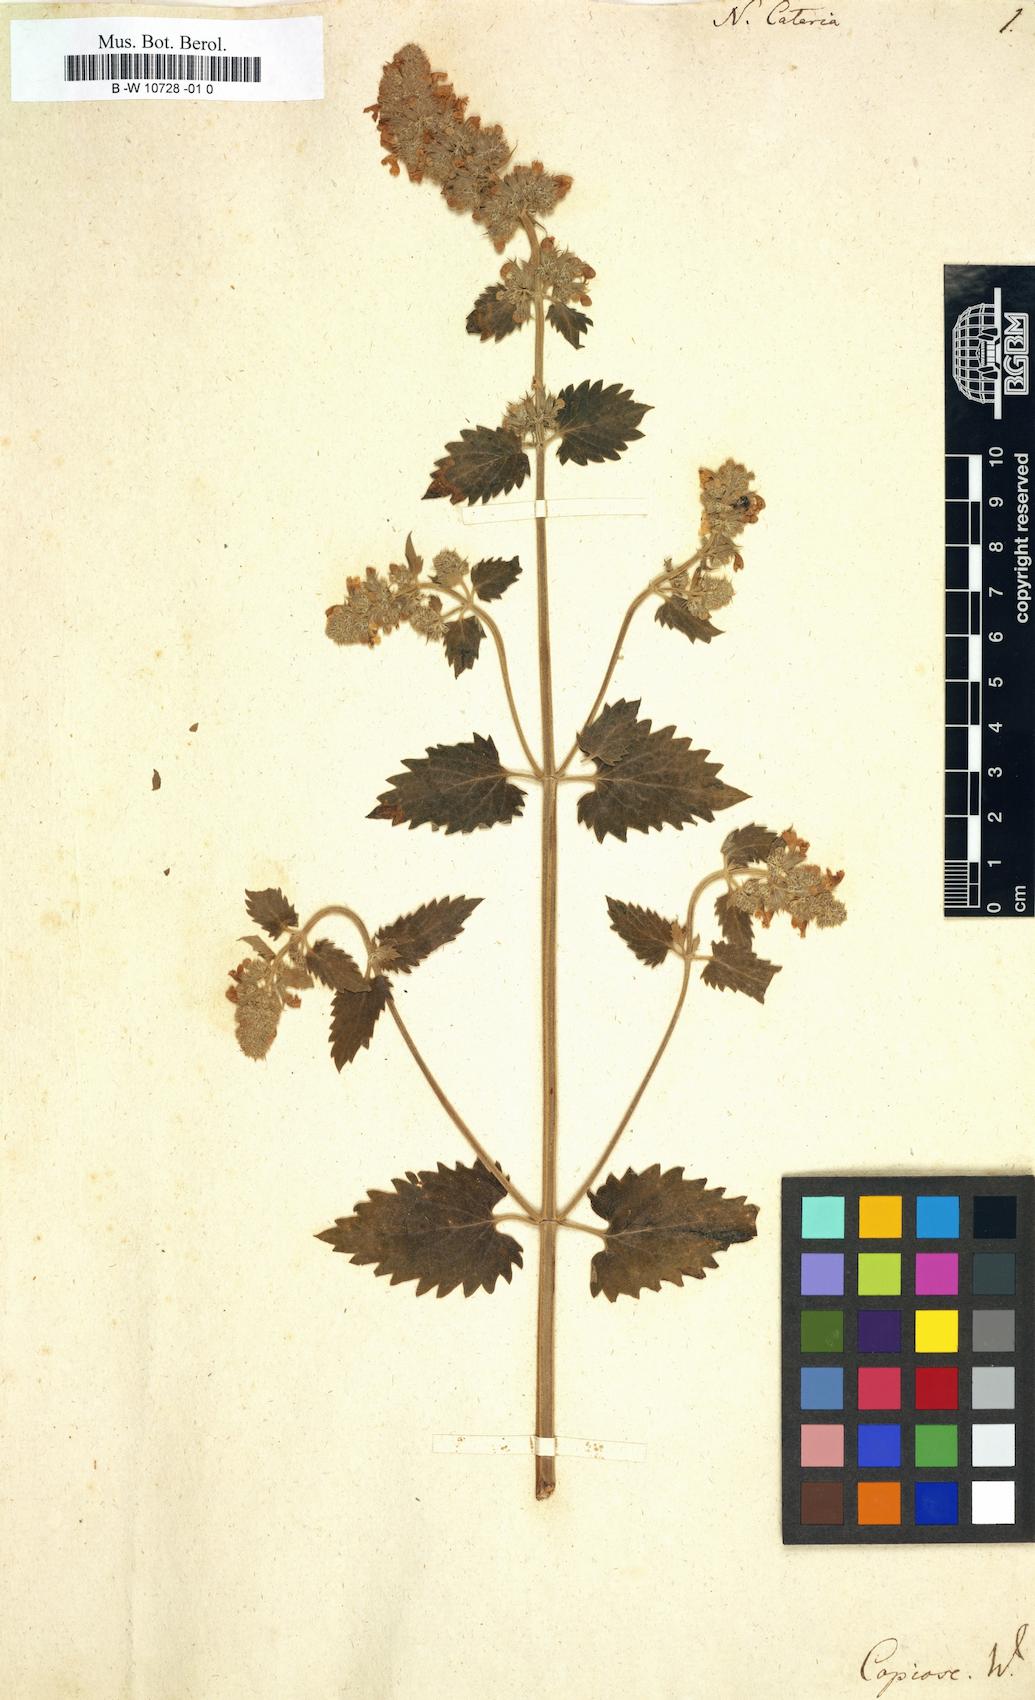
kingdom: Plantae
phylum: Tracheophyta
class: Magnoliopsida
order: Lamiales
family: Lamiaceae
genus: Nepeta
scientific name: Nepeta cataria
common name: Catnip
